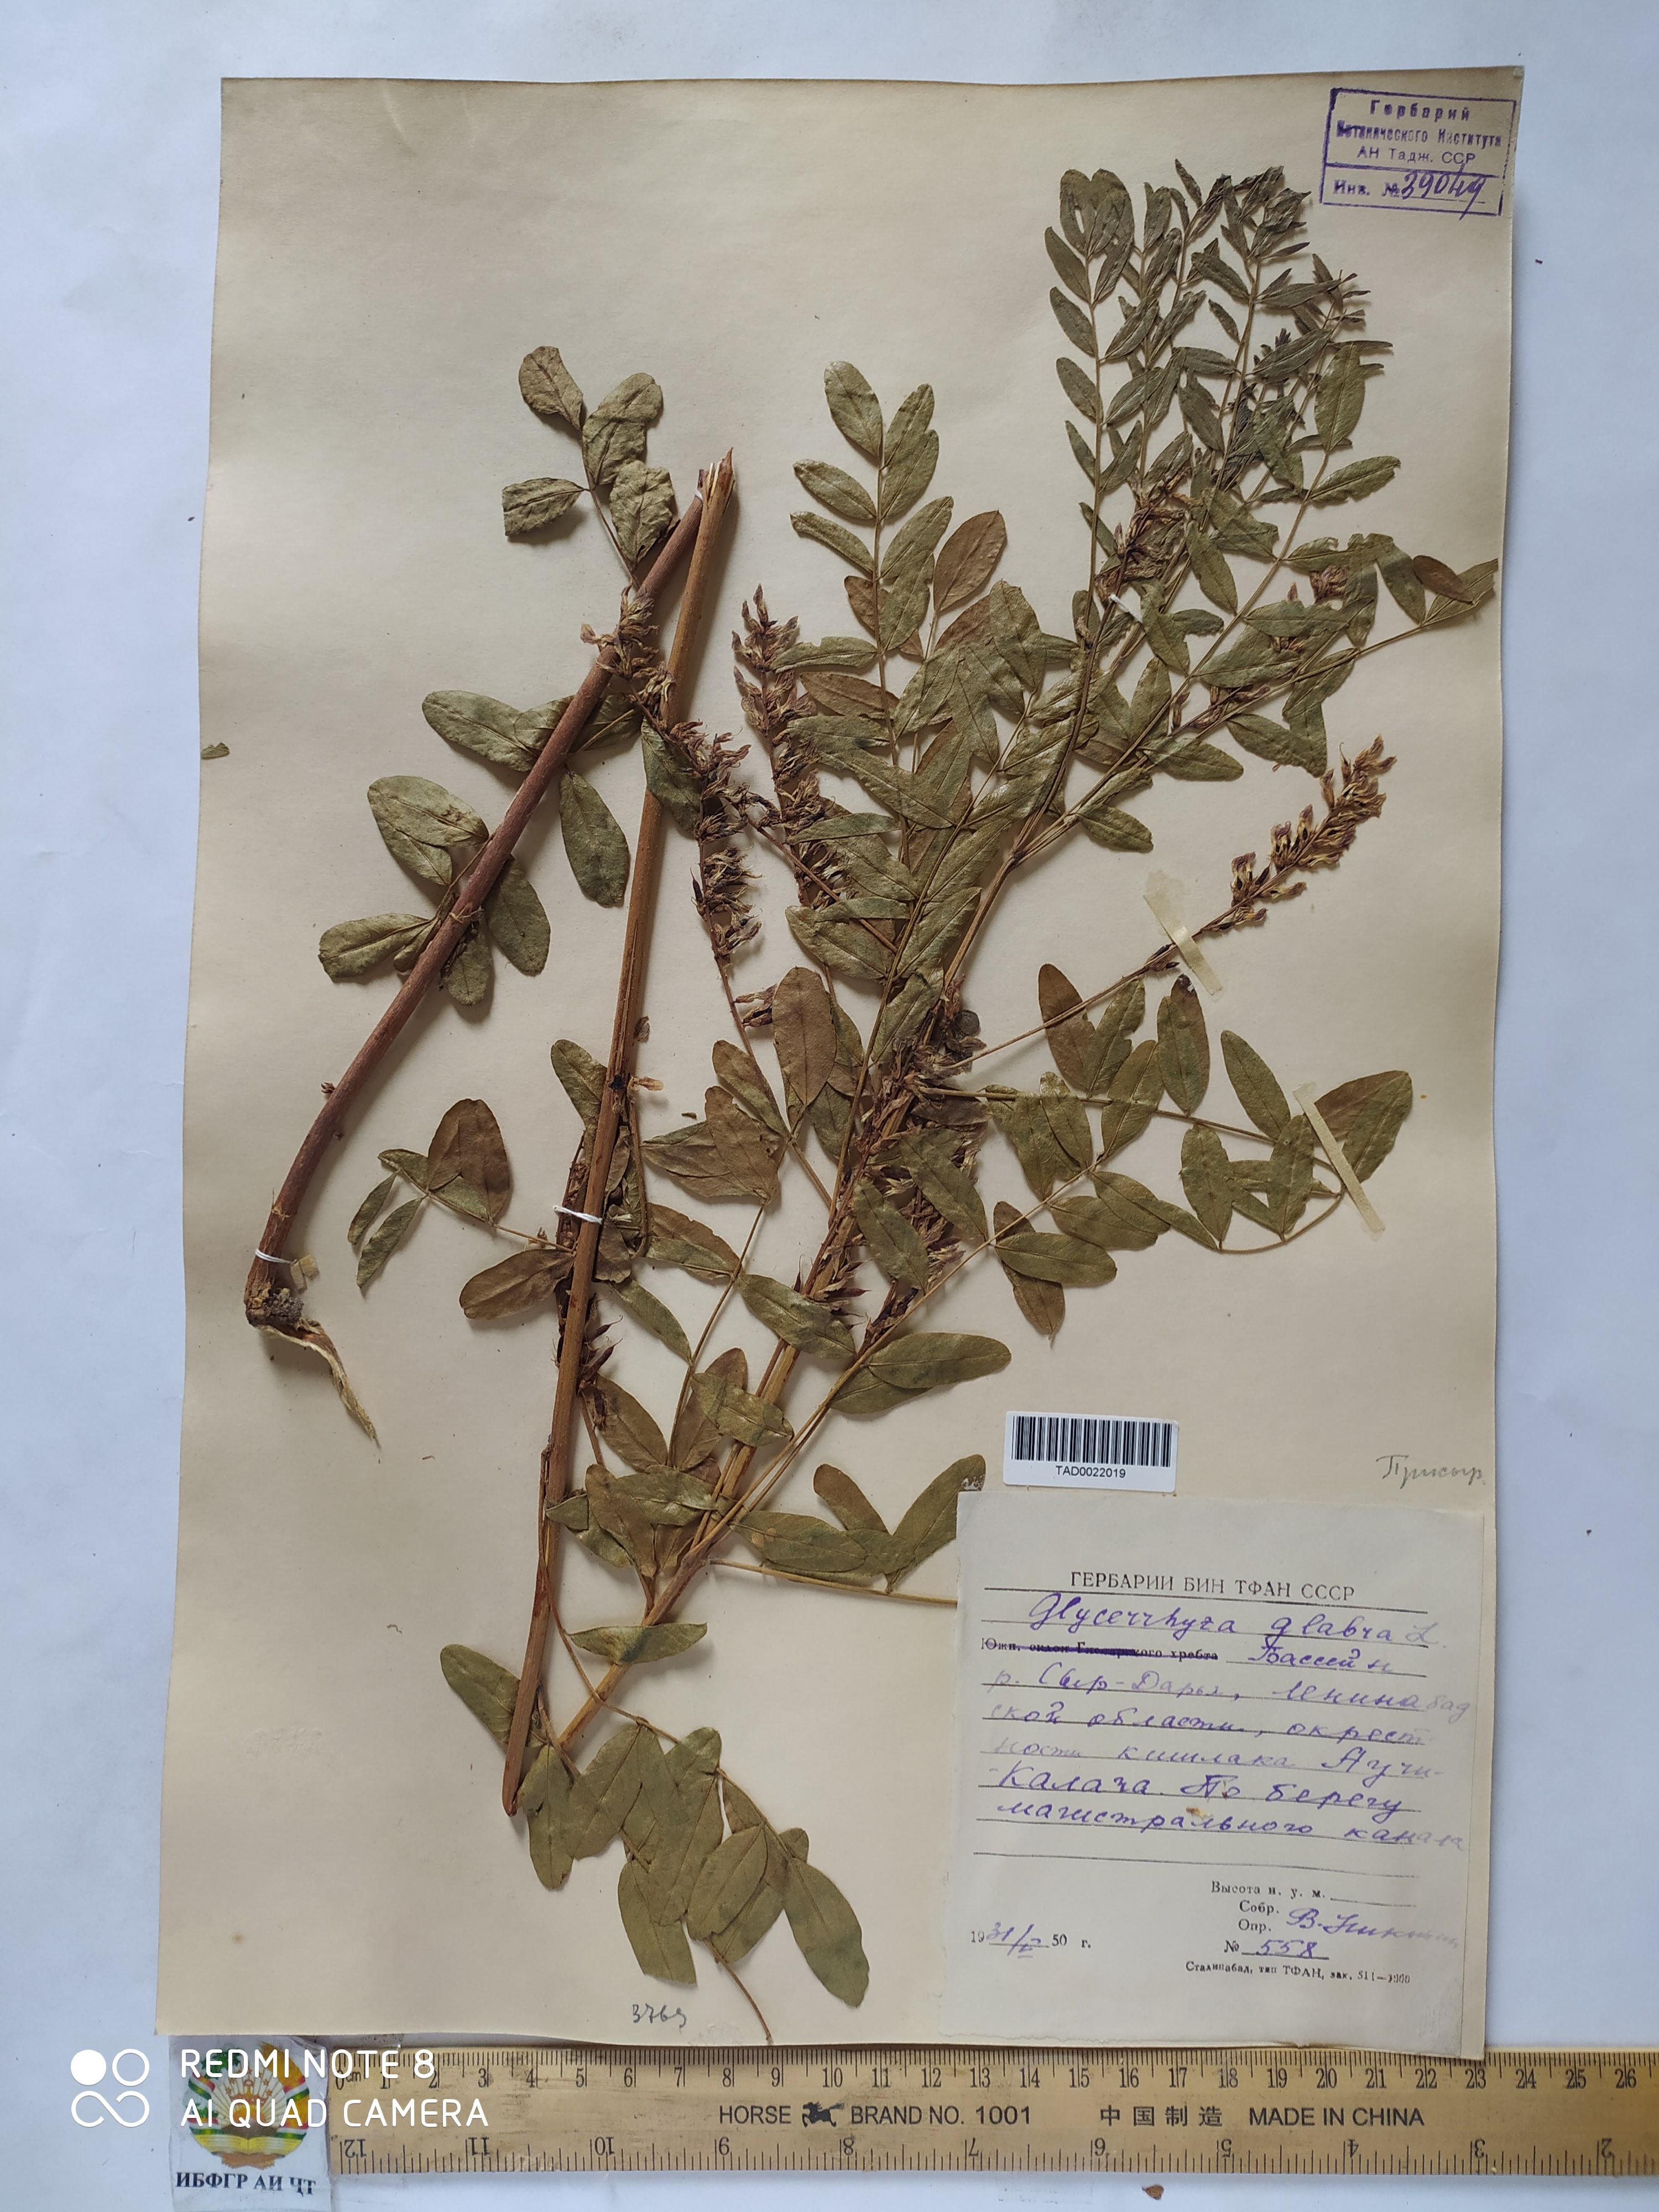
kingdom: Plantae
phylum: Tracheophyta
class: Magnoliopsida
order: Fabales
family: Fabaceae
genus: Glycyrrhiza
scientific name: Glycyrrhiza glabra
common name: Liquorice
